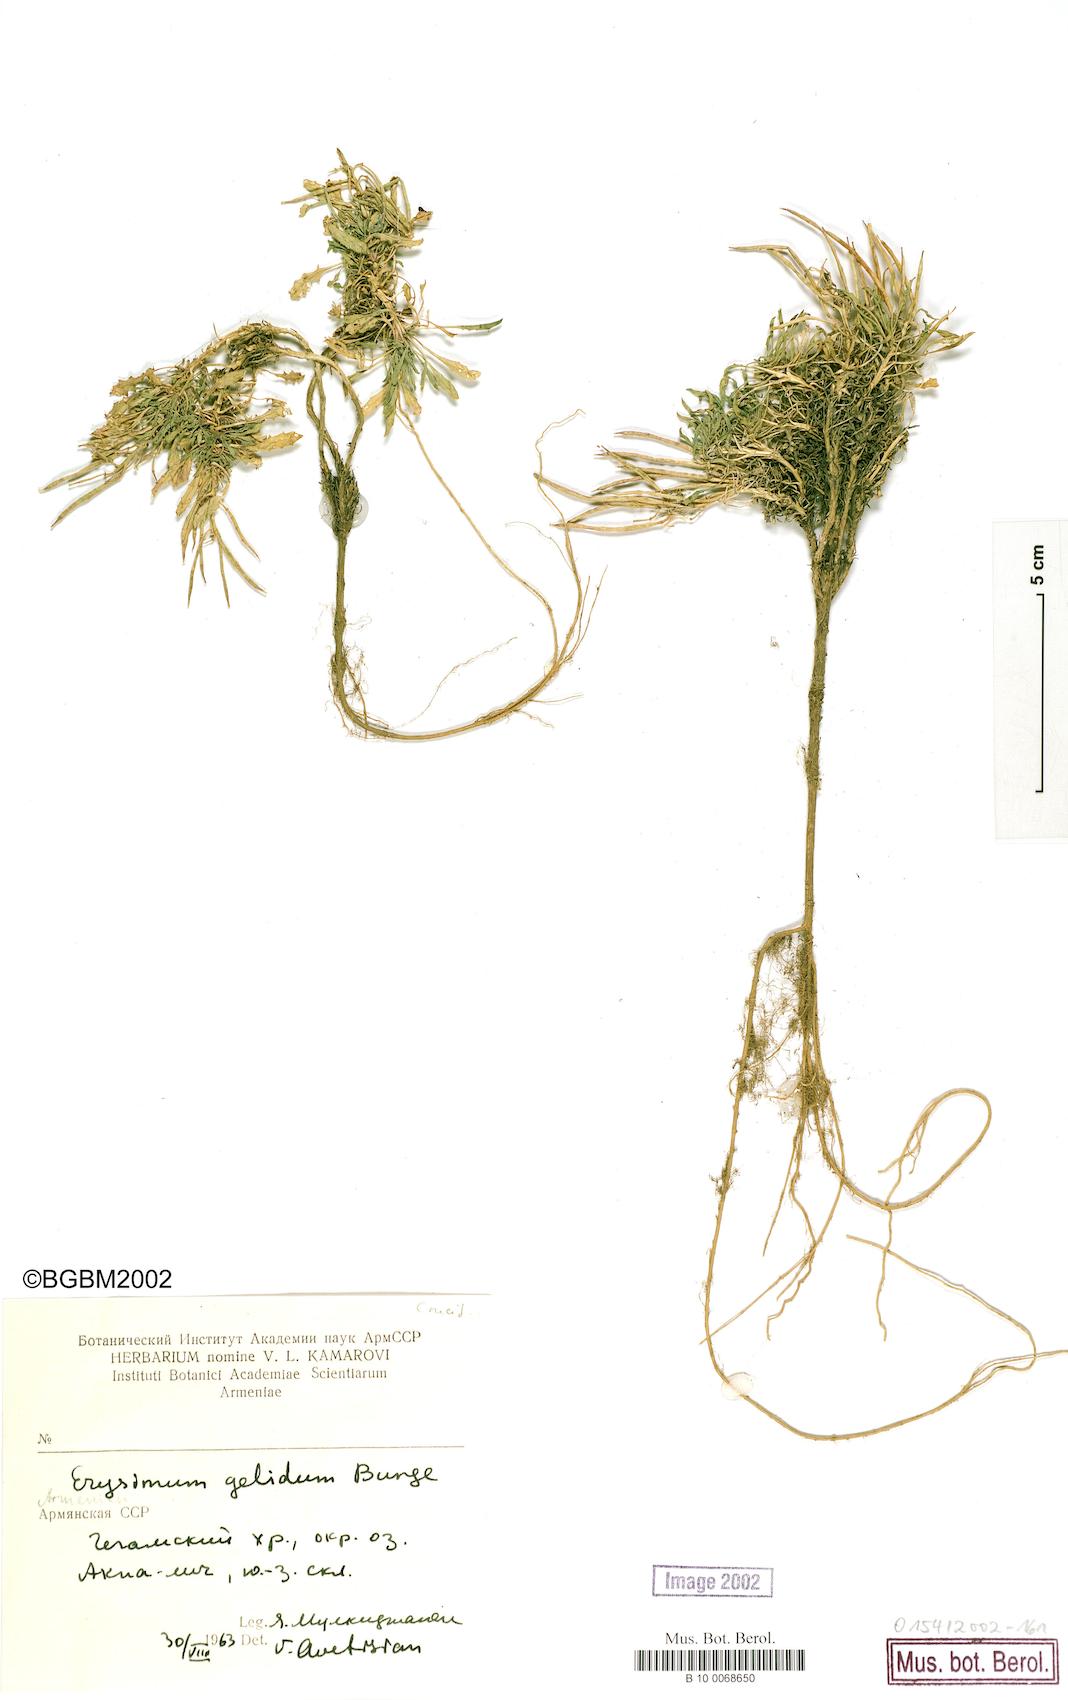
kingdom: Plantae
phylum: Tracheophyta
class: Magnoliopsida
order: Brassicales
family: Brassicaceae
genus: Erysimum
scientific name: Erysimum hajastanicum
